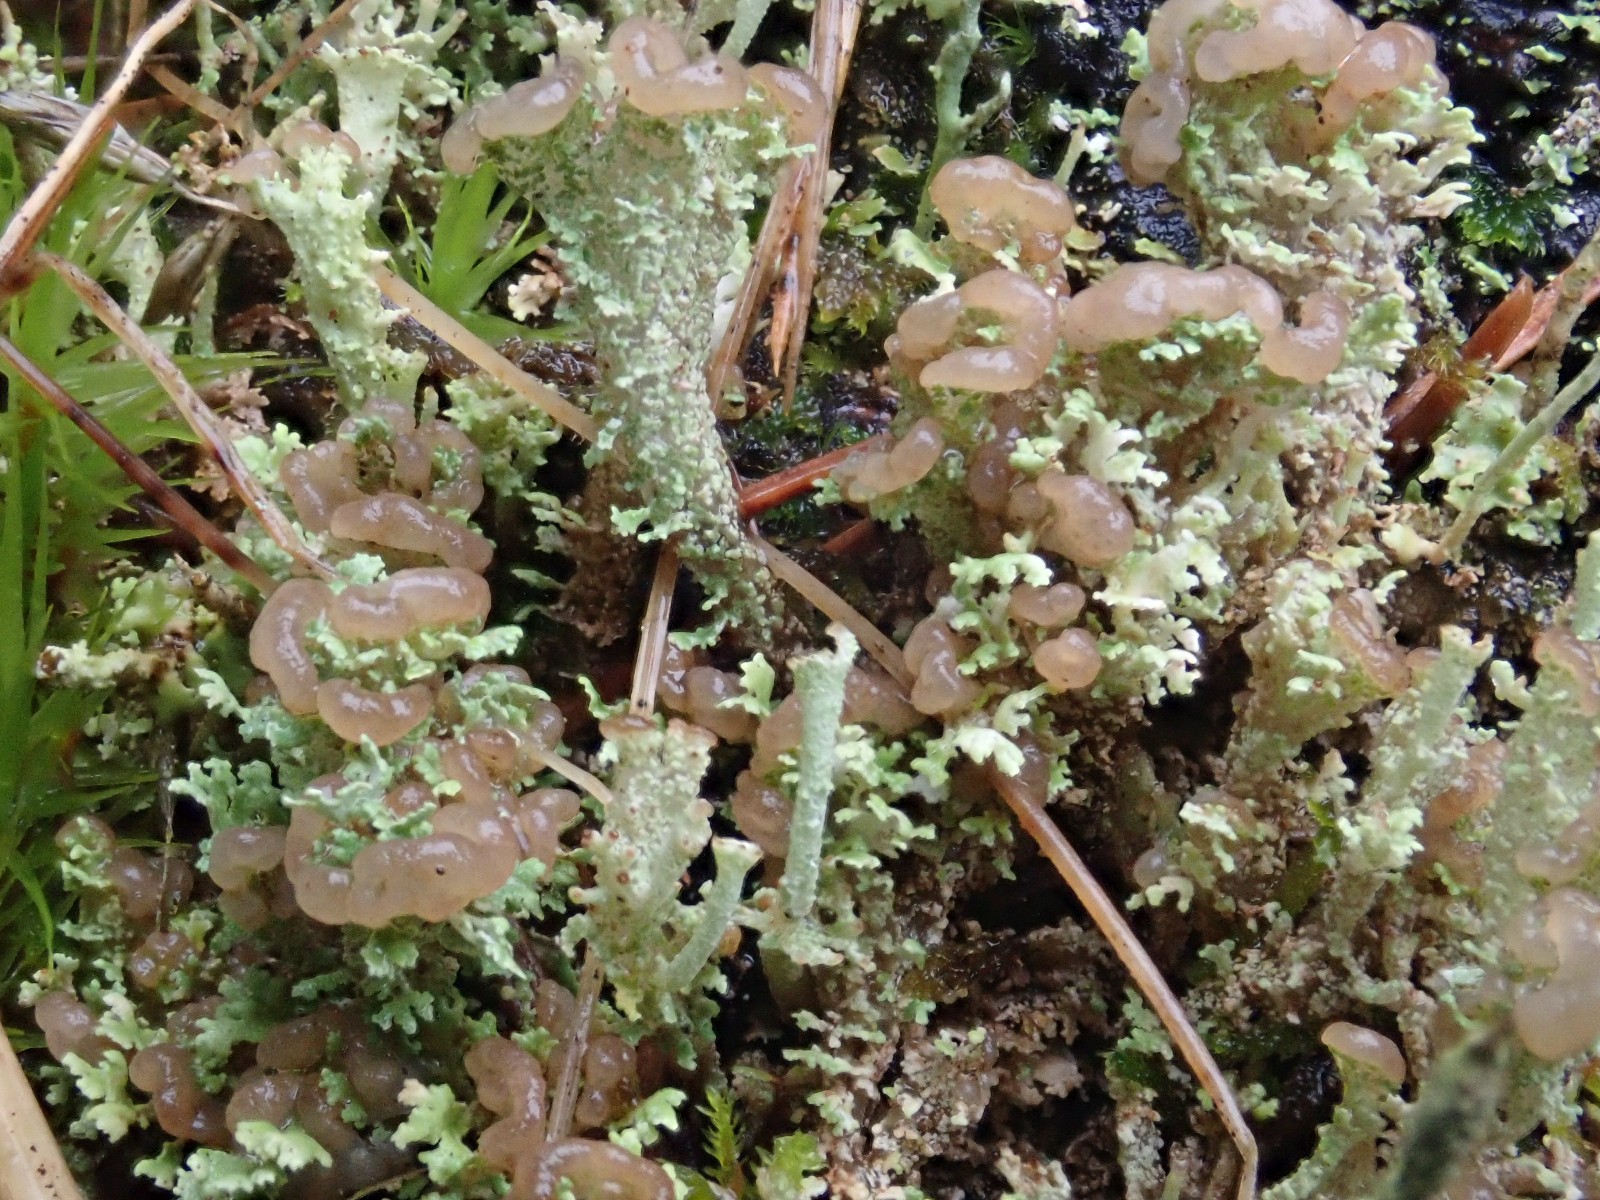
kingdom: Fungi
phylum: Ascomycota
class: Lecanoromycetes
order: Lecanorales
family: Cladoniaceae
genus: Cladonia
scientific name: Cladonia ramulosa
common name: kliddet bægerlav
